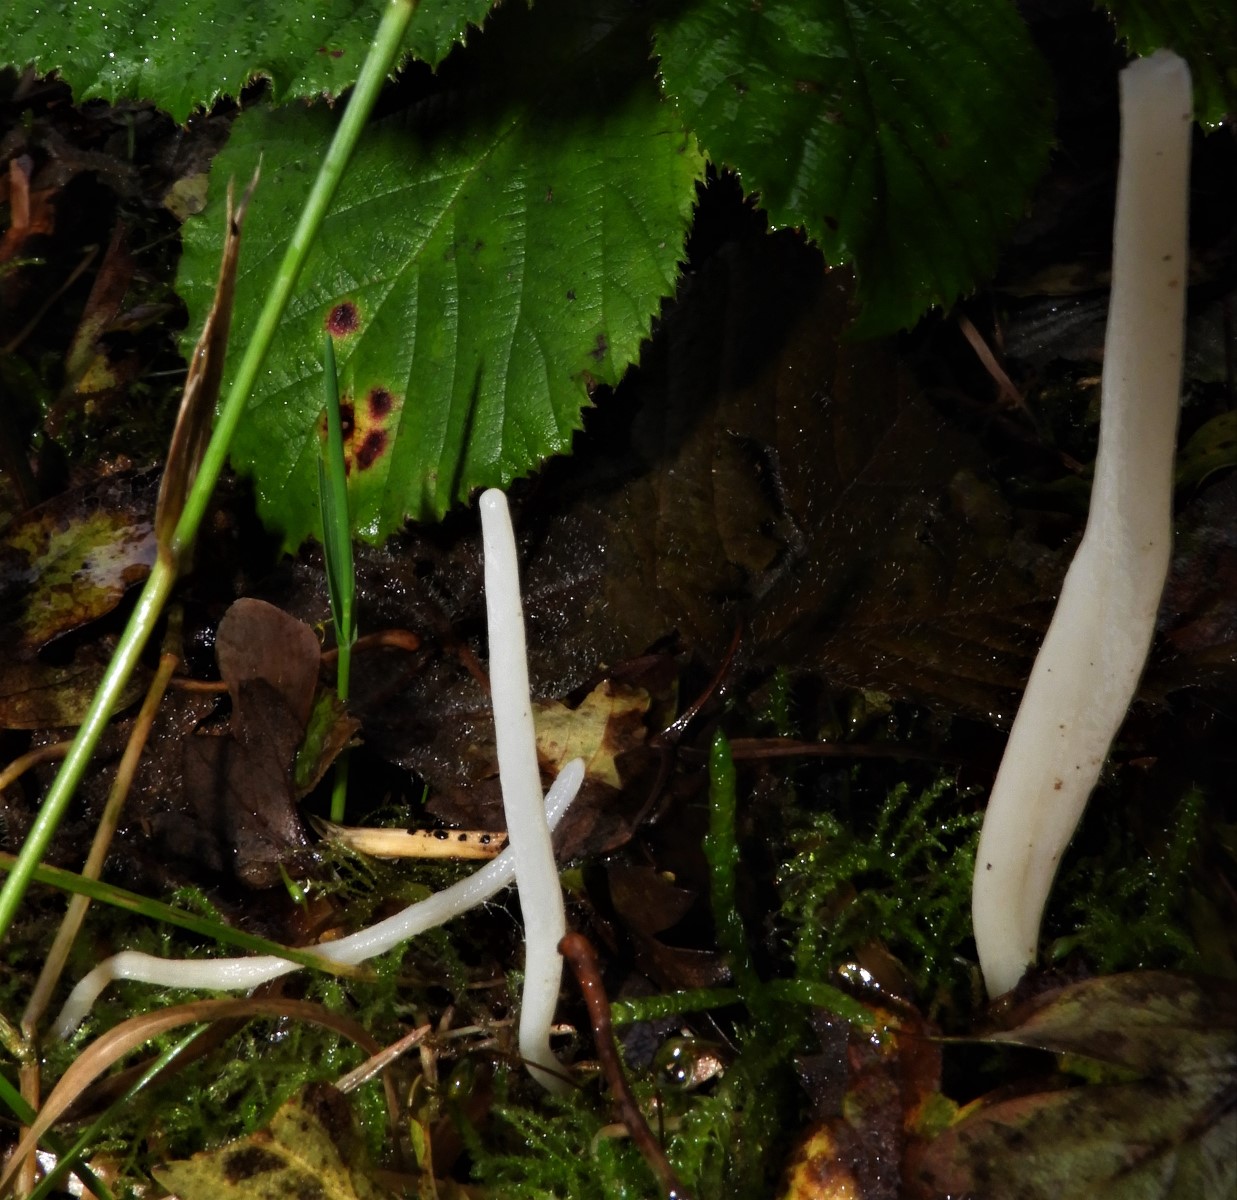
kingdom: Fungi
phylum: Basidiomycota
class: Agaricomycetes
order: Agaricales
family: Clavariaceae
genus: Clavaria
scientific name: Clavaria
